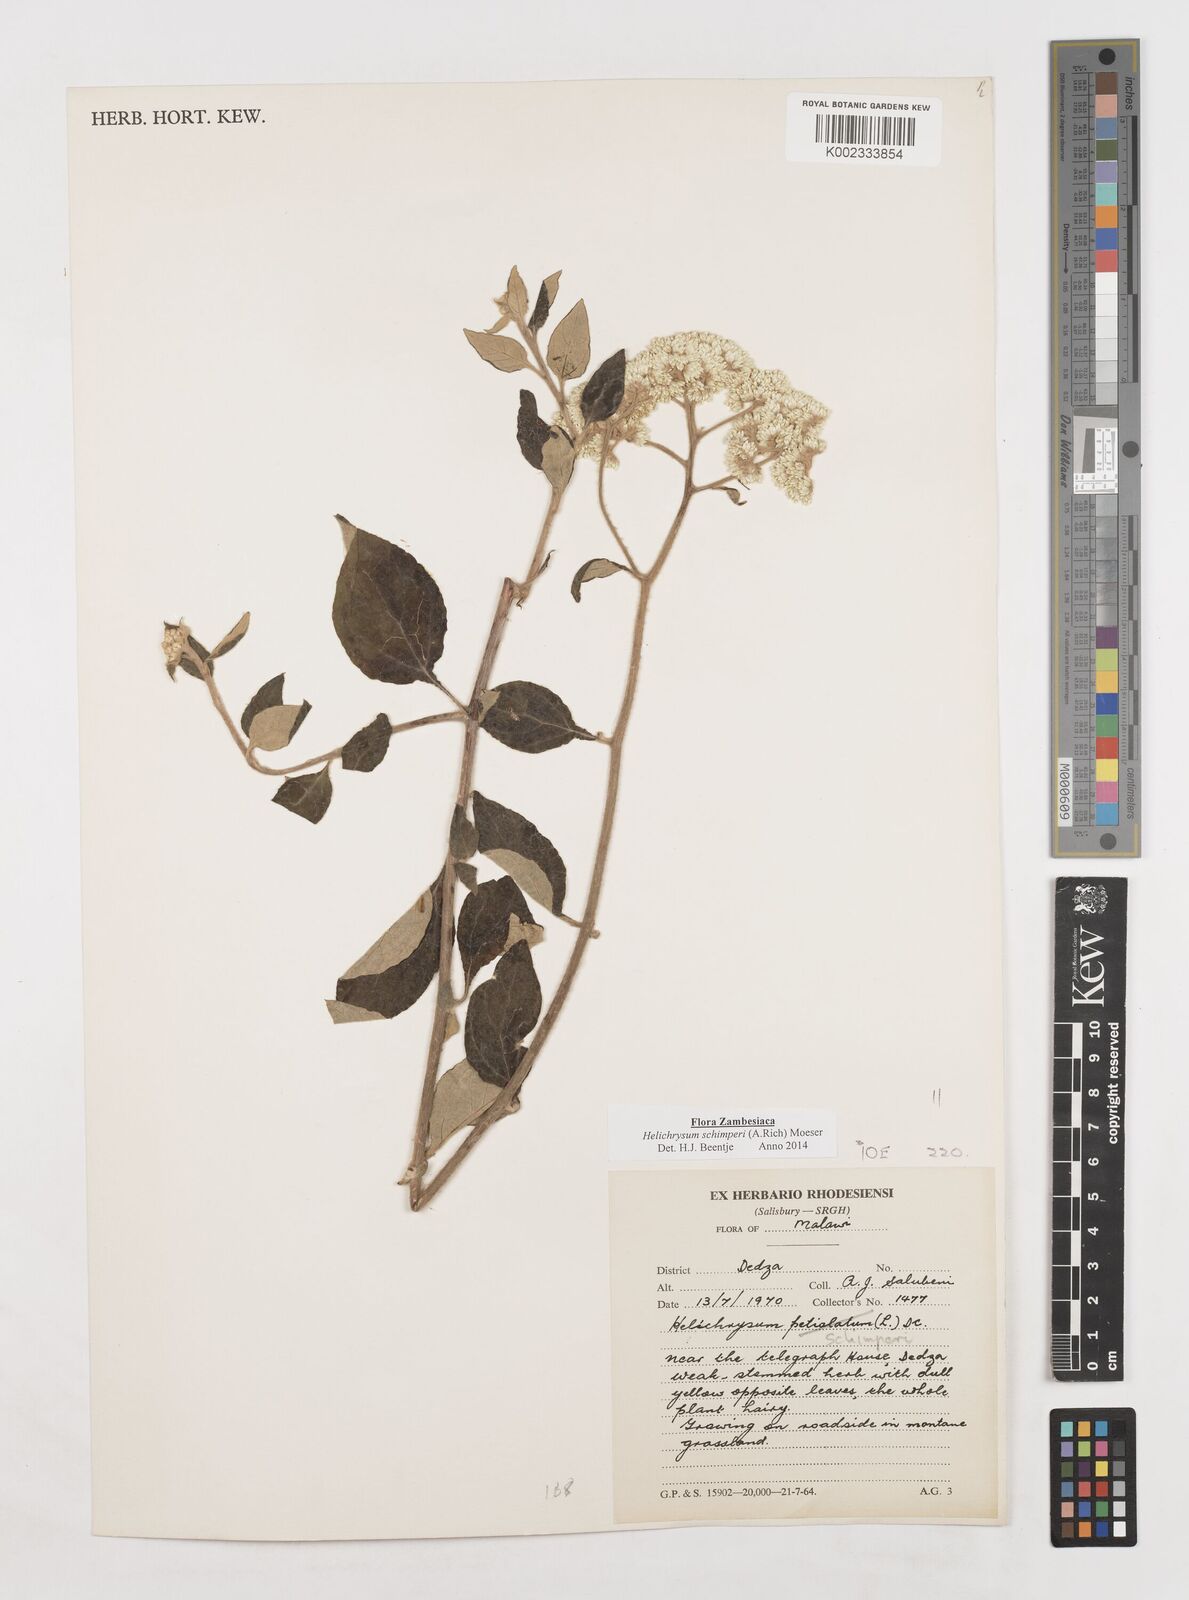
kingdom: Plantae
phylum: Tracheophyta
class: Magnoliopsida
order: Asterales
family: Asteraceae
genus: Helichrysum
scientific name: Helichrysum schimperi
